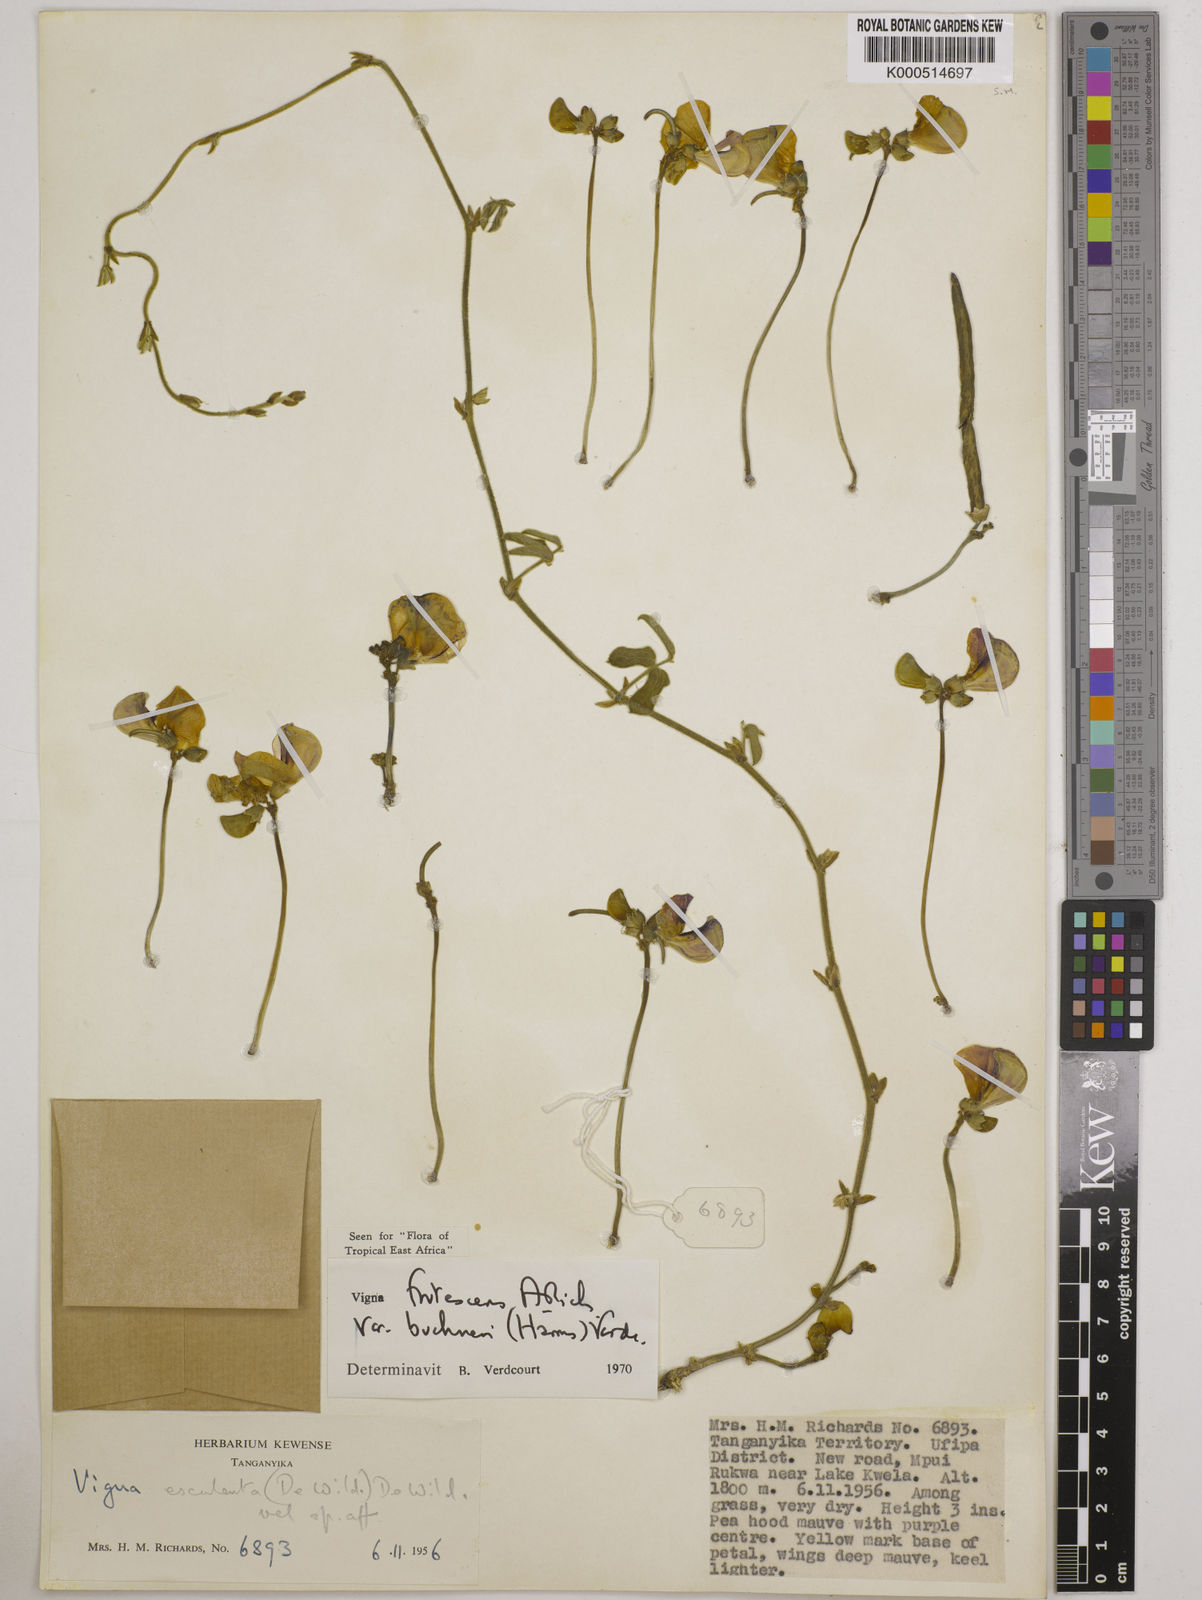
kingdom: Plantae
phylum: Tracheophyta
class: Magnoliopsida
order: Fabales
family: Fabaceae
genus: Vigna
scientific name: Vigna
